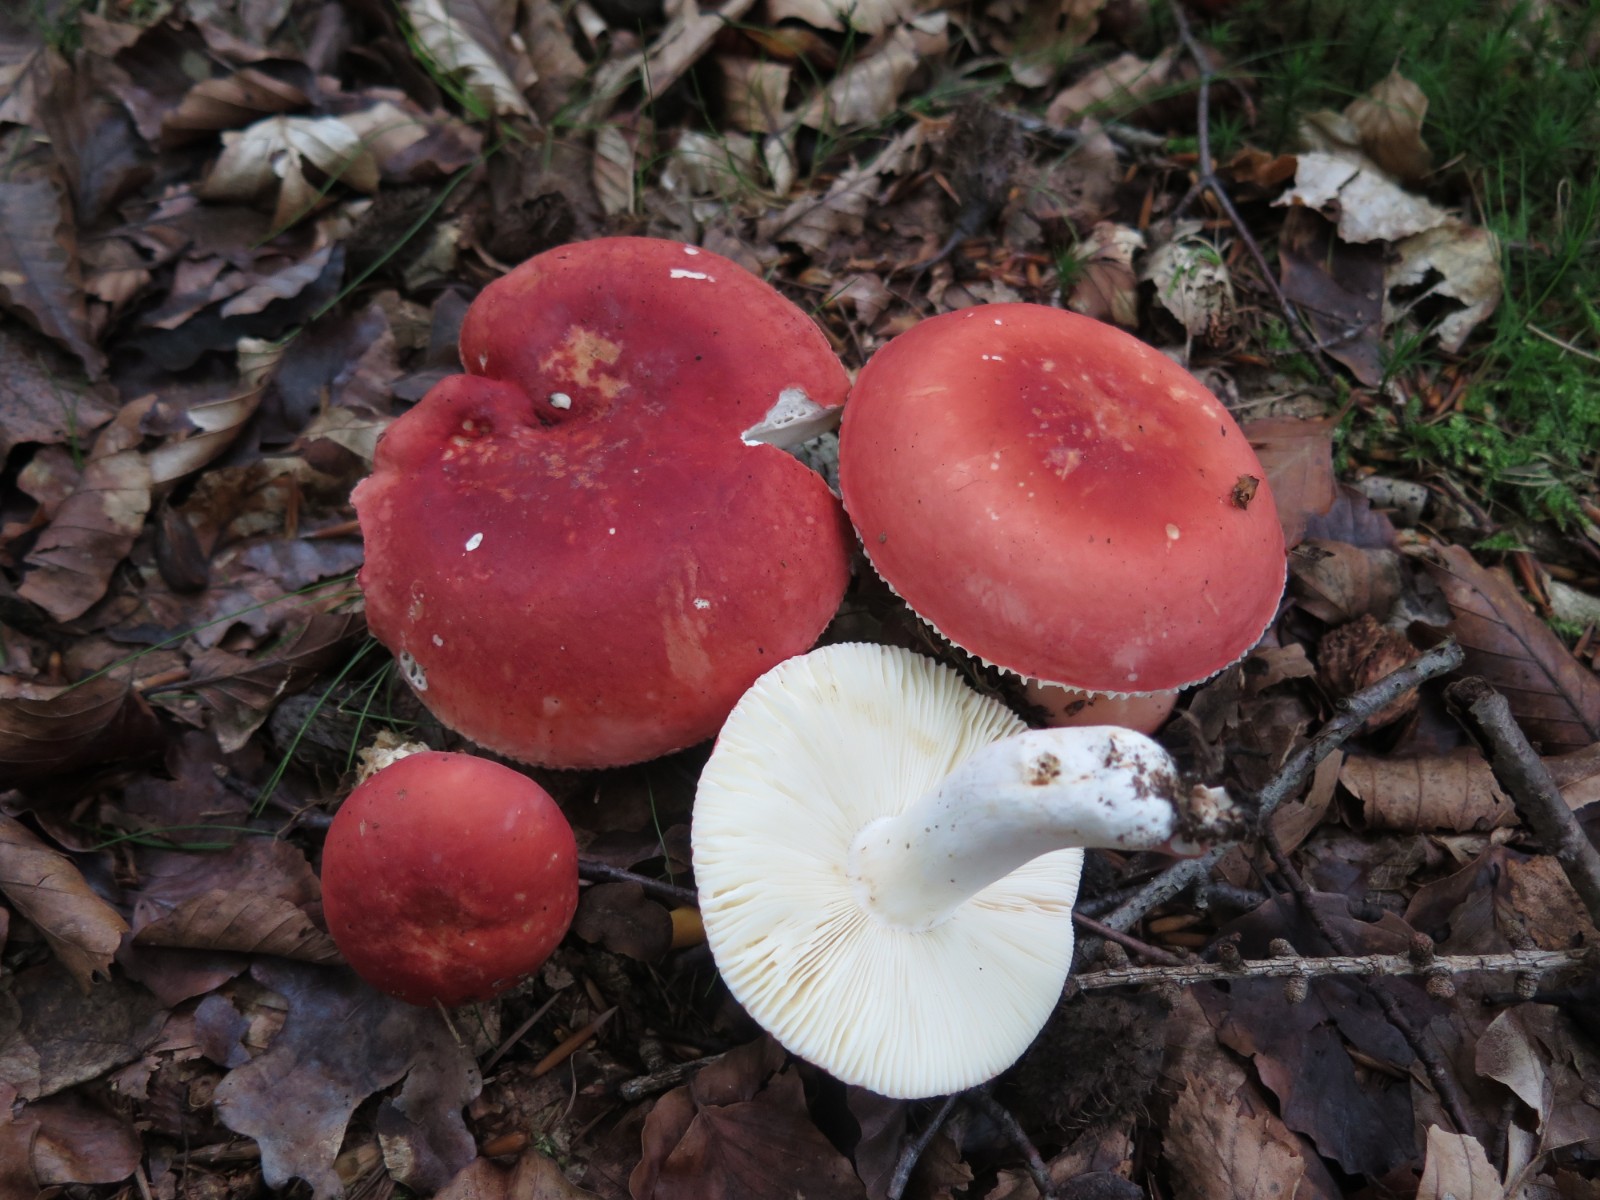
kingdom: Fungi
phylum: Basidiomycota
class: Agaricomycetes
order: Russulales
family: Russulaceae
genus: Russula
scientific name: Russula emetica
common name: stor gift-skørhat
